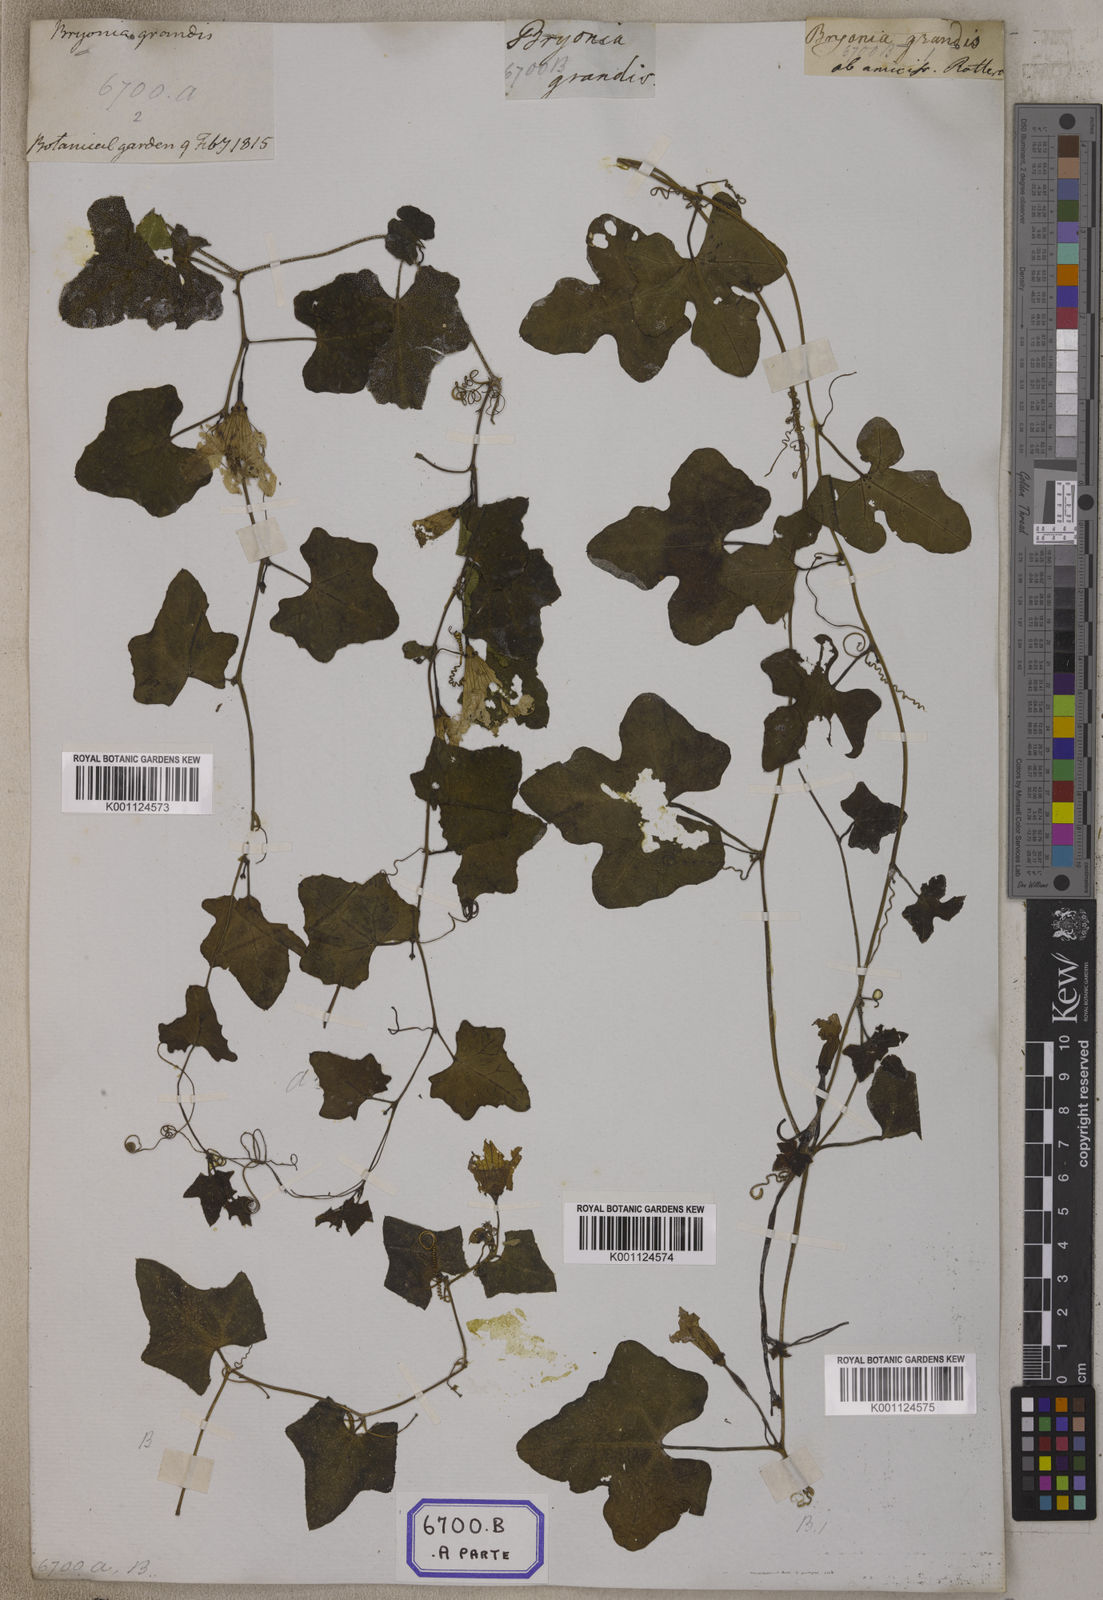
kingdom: Plantae
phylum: Tracheophyta
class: Magnoliopsida
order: Cucurbitales
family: Cucurbitaceae
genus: Bryonia
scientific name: Bryonia
